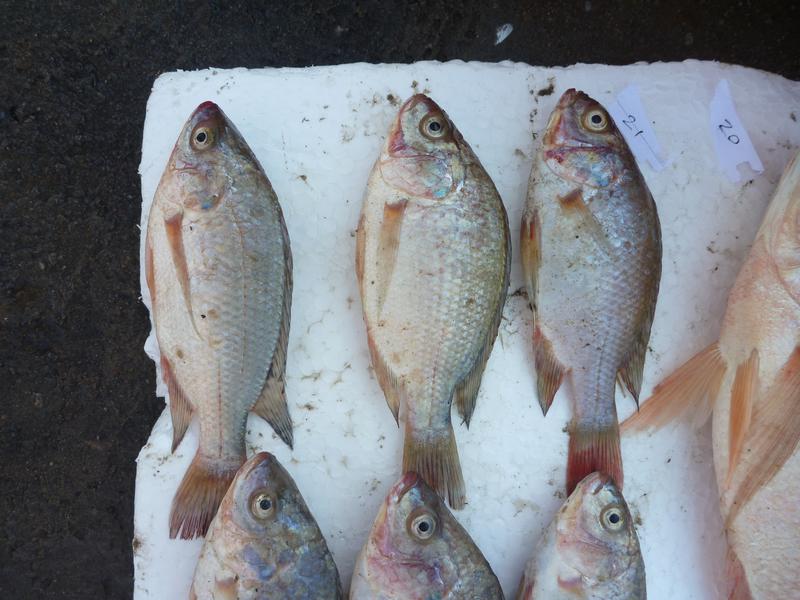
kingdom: Animalia
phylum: Chordata
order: Perciformes
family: Cichlidae
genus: Oreochromis
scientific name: Oreochromis esculentus
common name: Carp
